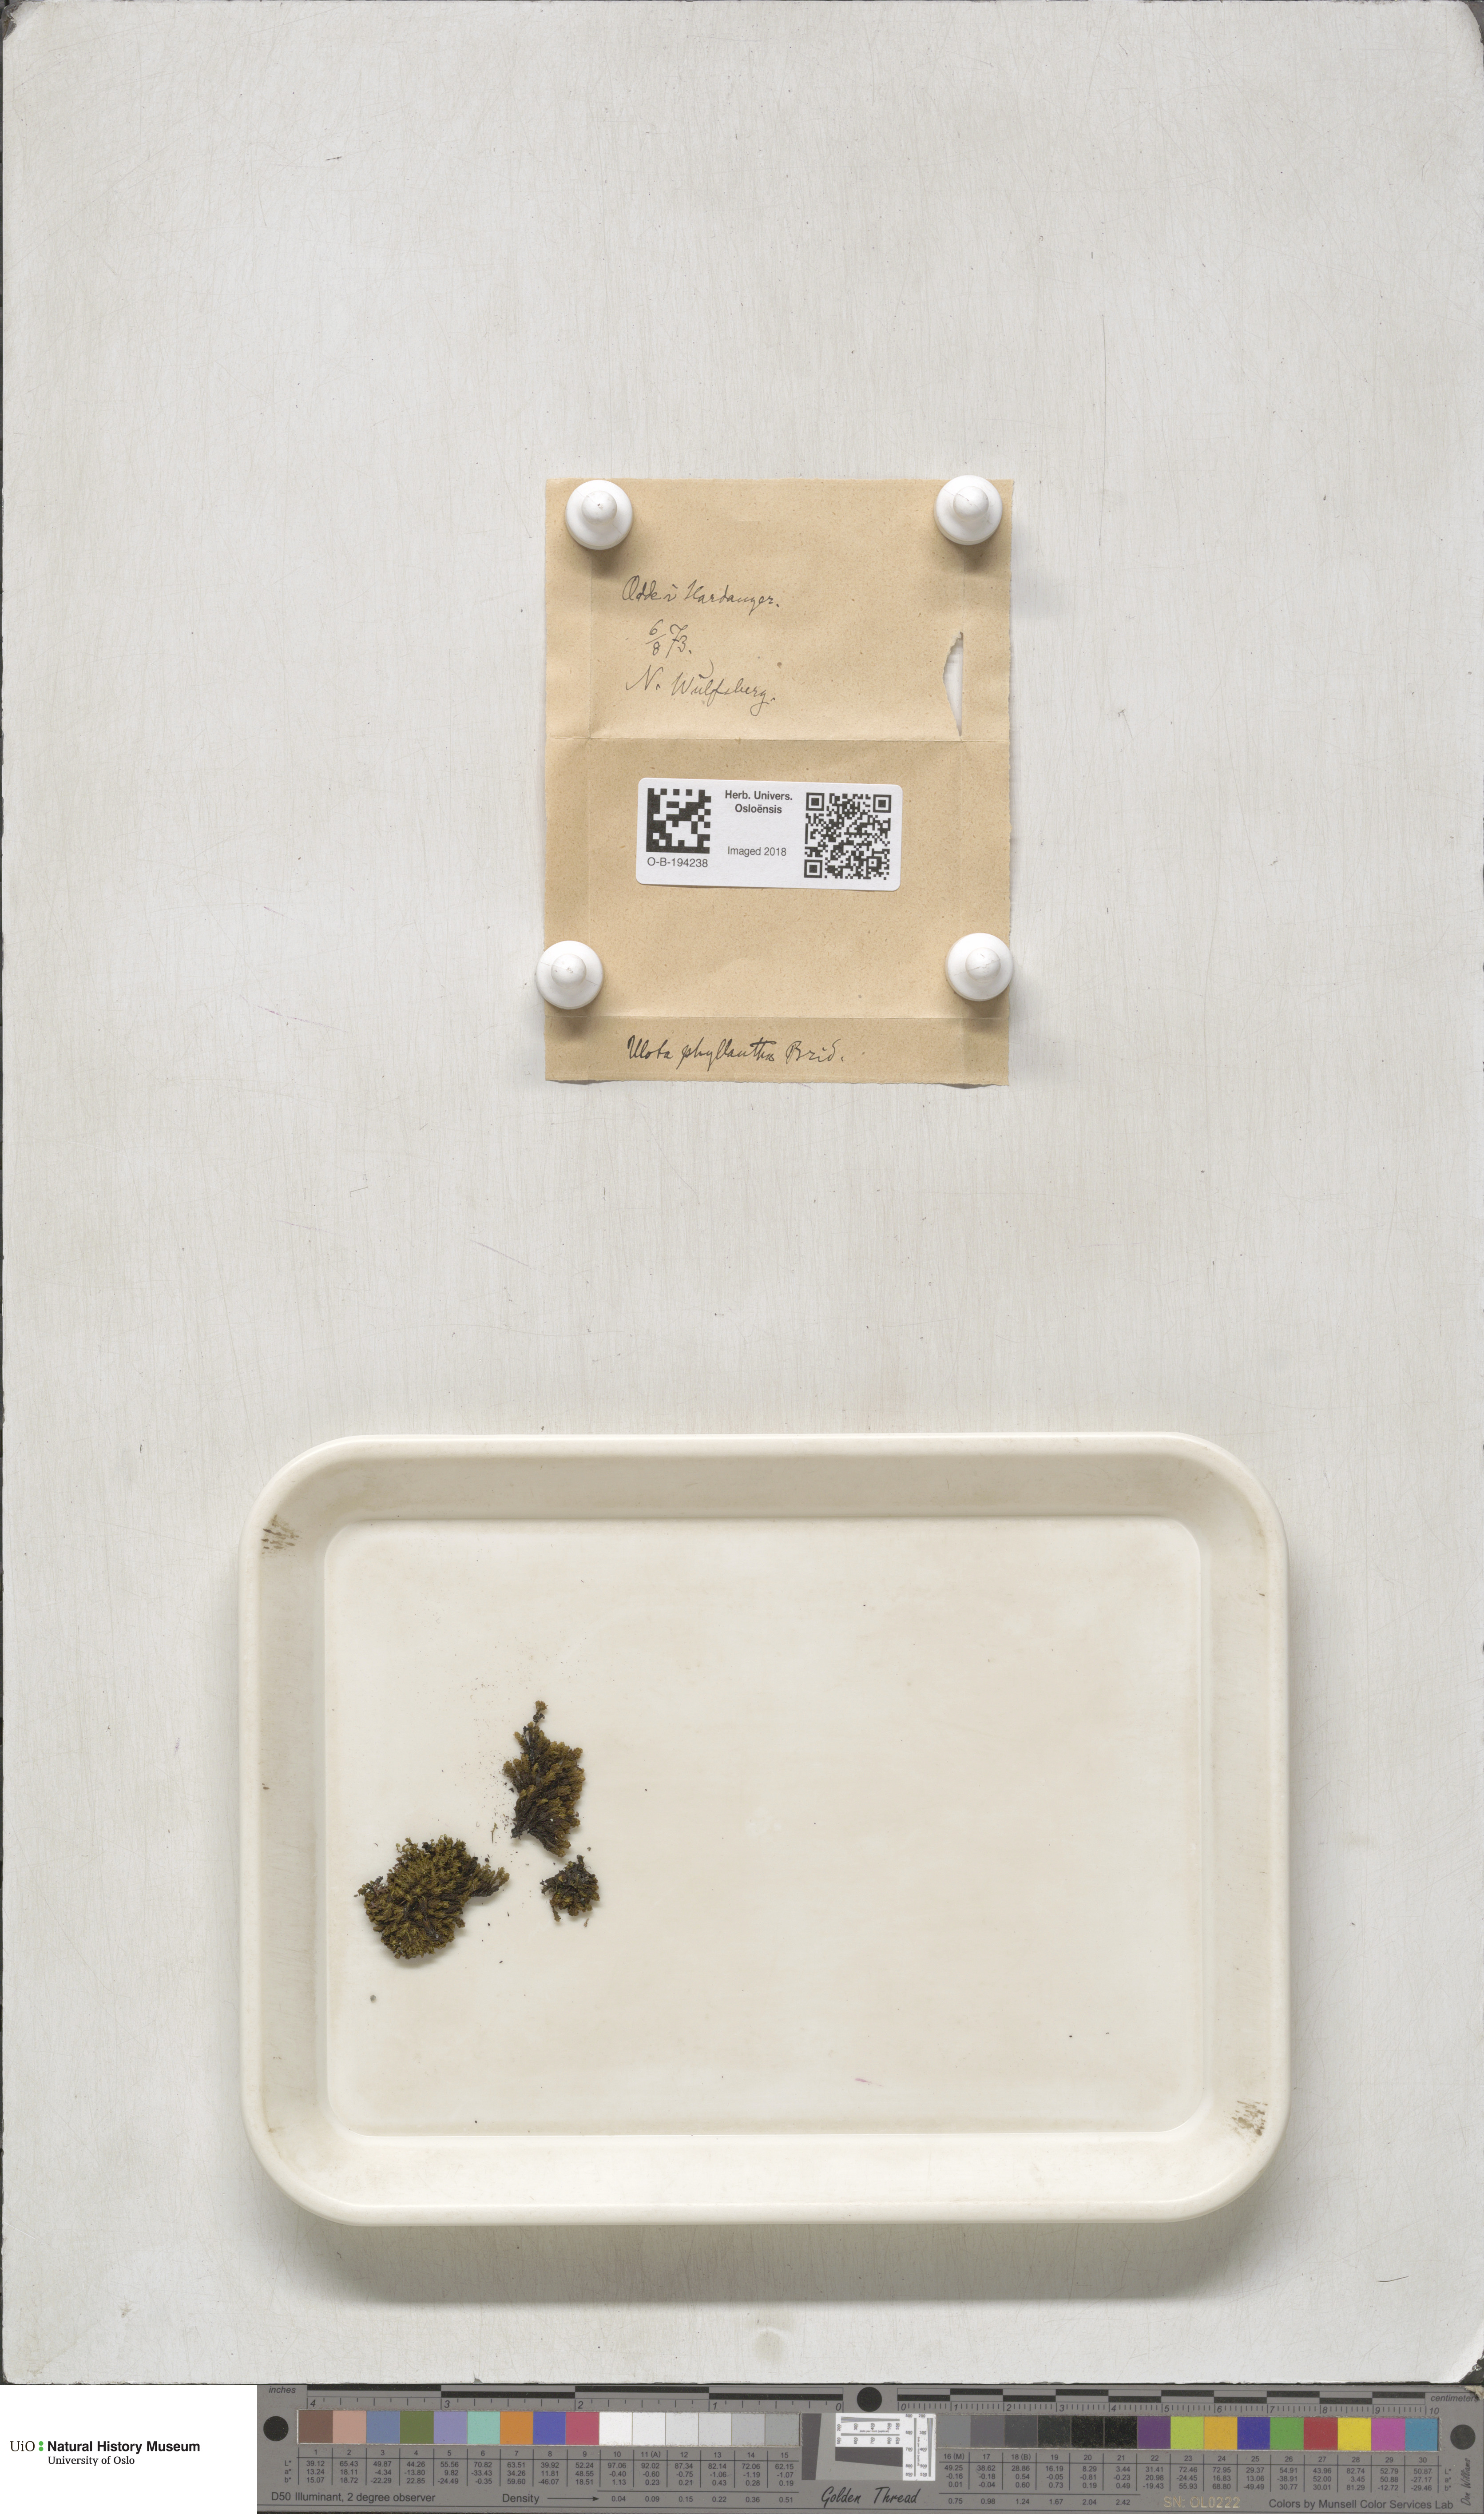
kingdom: Plantae
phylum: Bryophyta
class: Bryopsida
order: Orthotrichales
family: Orthotrichaceae
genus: Plenogemma
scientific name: Plenogemma phyllantha
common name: Frizzled pincushion
